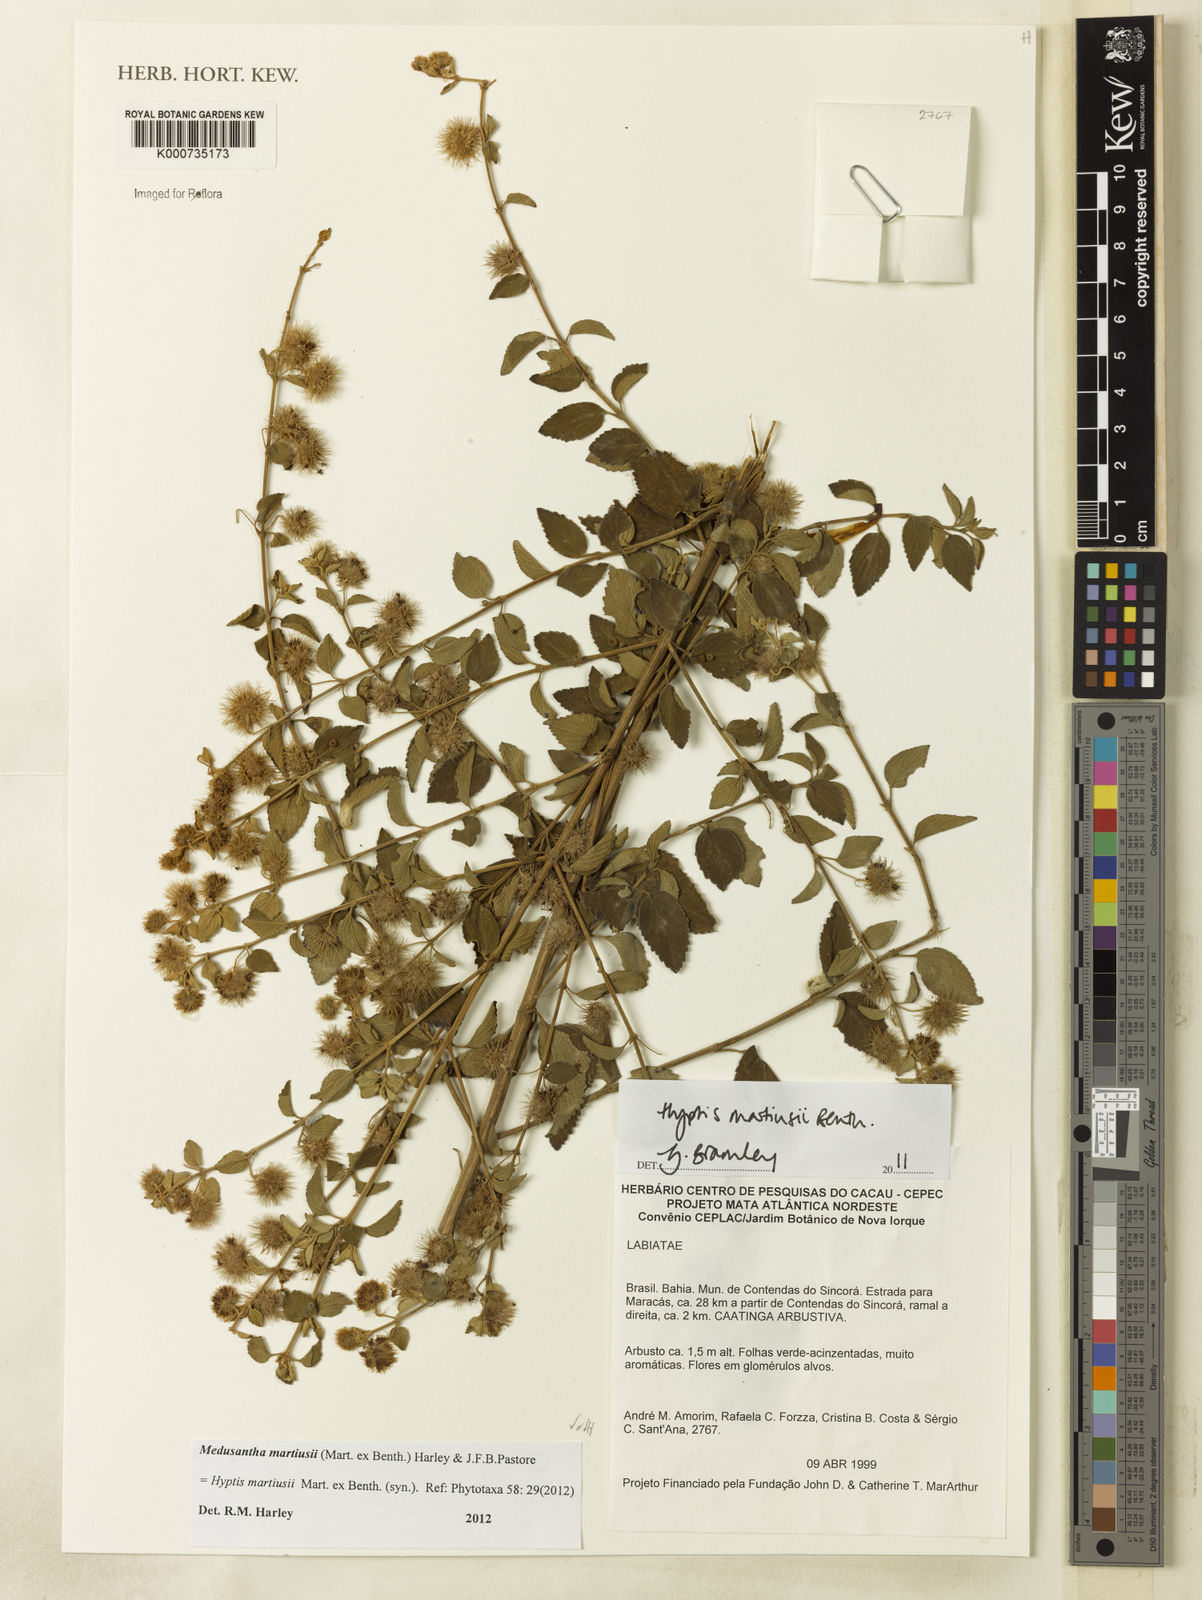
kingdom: Plantae
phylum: Tracheophyta
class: Magnoliopsida
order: Lamiales
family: Lamiaceae
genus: Medusantha
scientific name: Medusantha martiusii
